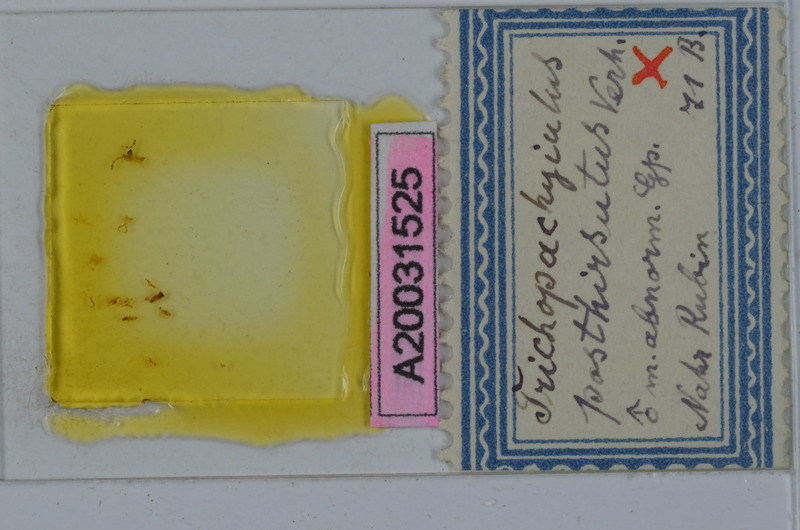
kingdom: Animalia
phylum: Arthropoda
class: Diplopoda
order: Julida
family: Julidae
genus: Syrioiulus
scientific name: Syrioiulus posthirsutus
